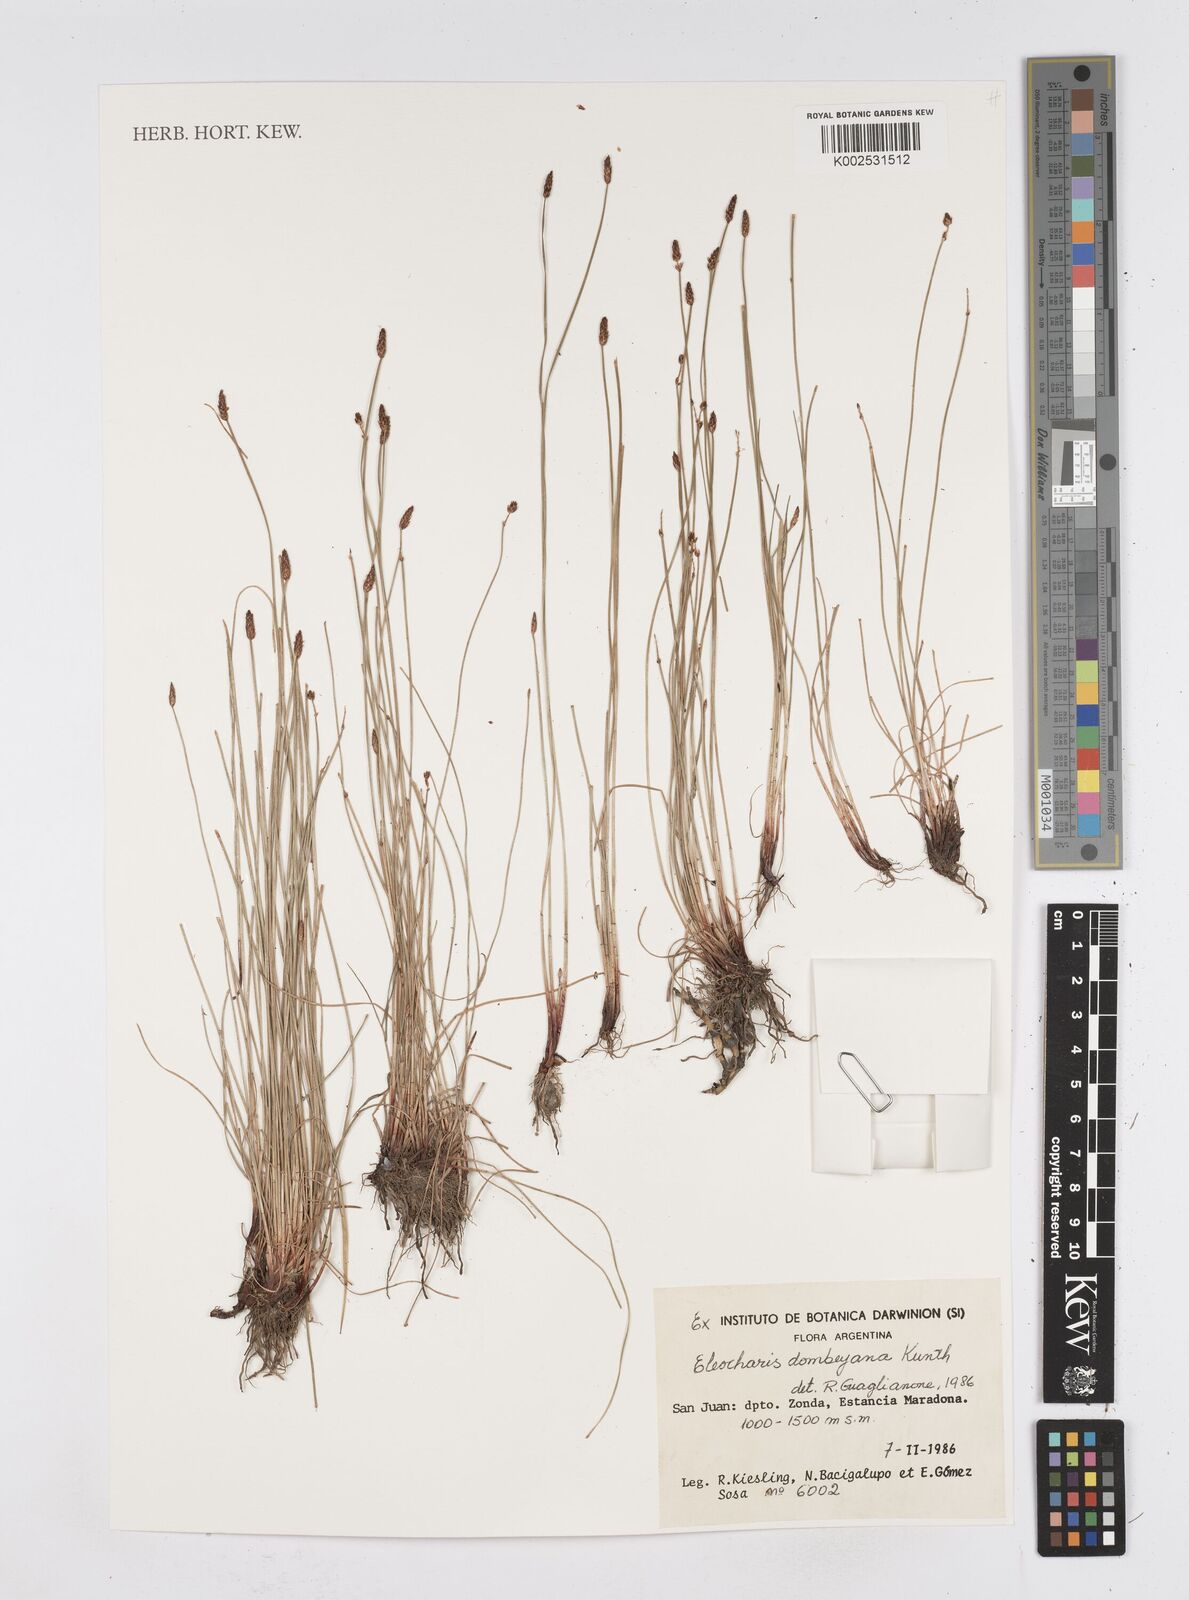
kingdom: Plantae
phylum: Tracheophyta
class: Liliopsida
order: Poales
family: Cyperaceae
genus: Eleocharis
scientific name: Eleocharis dombeyana
